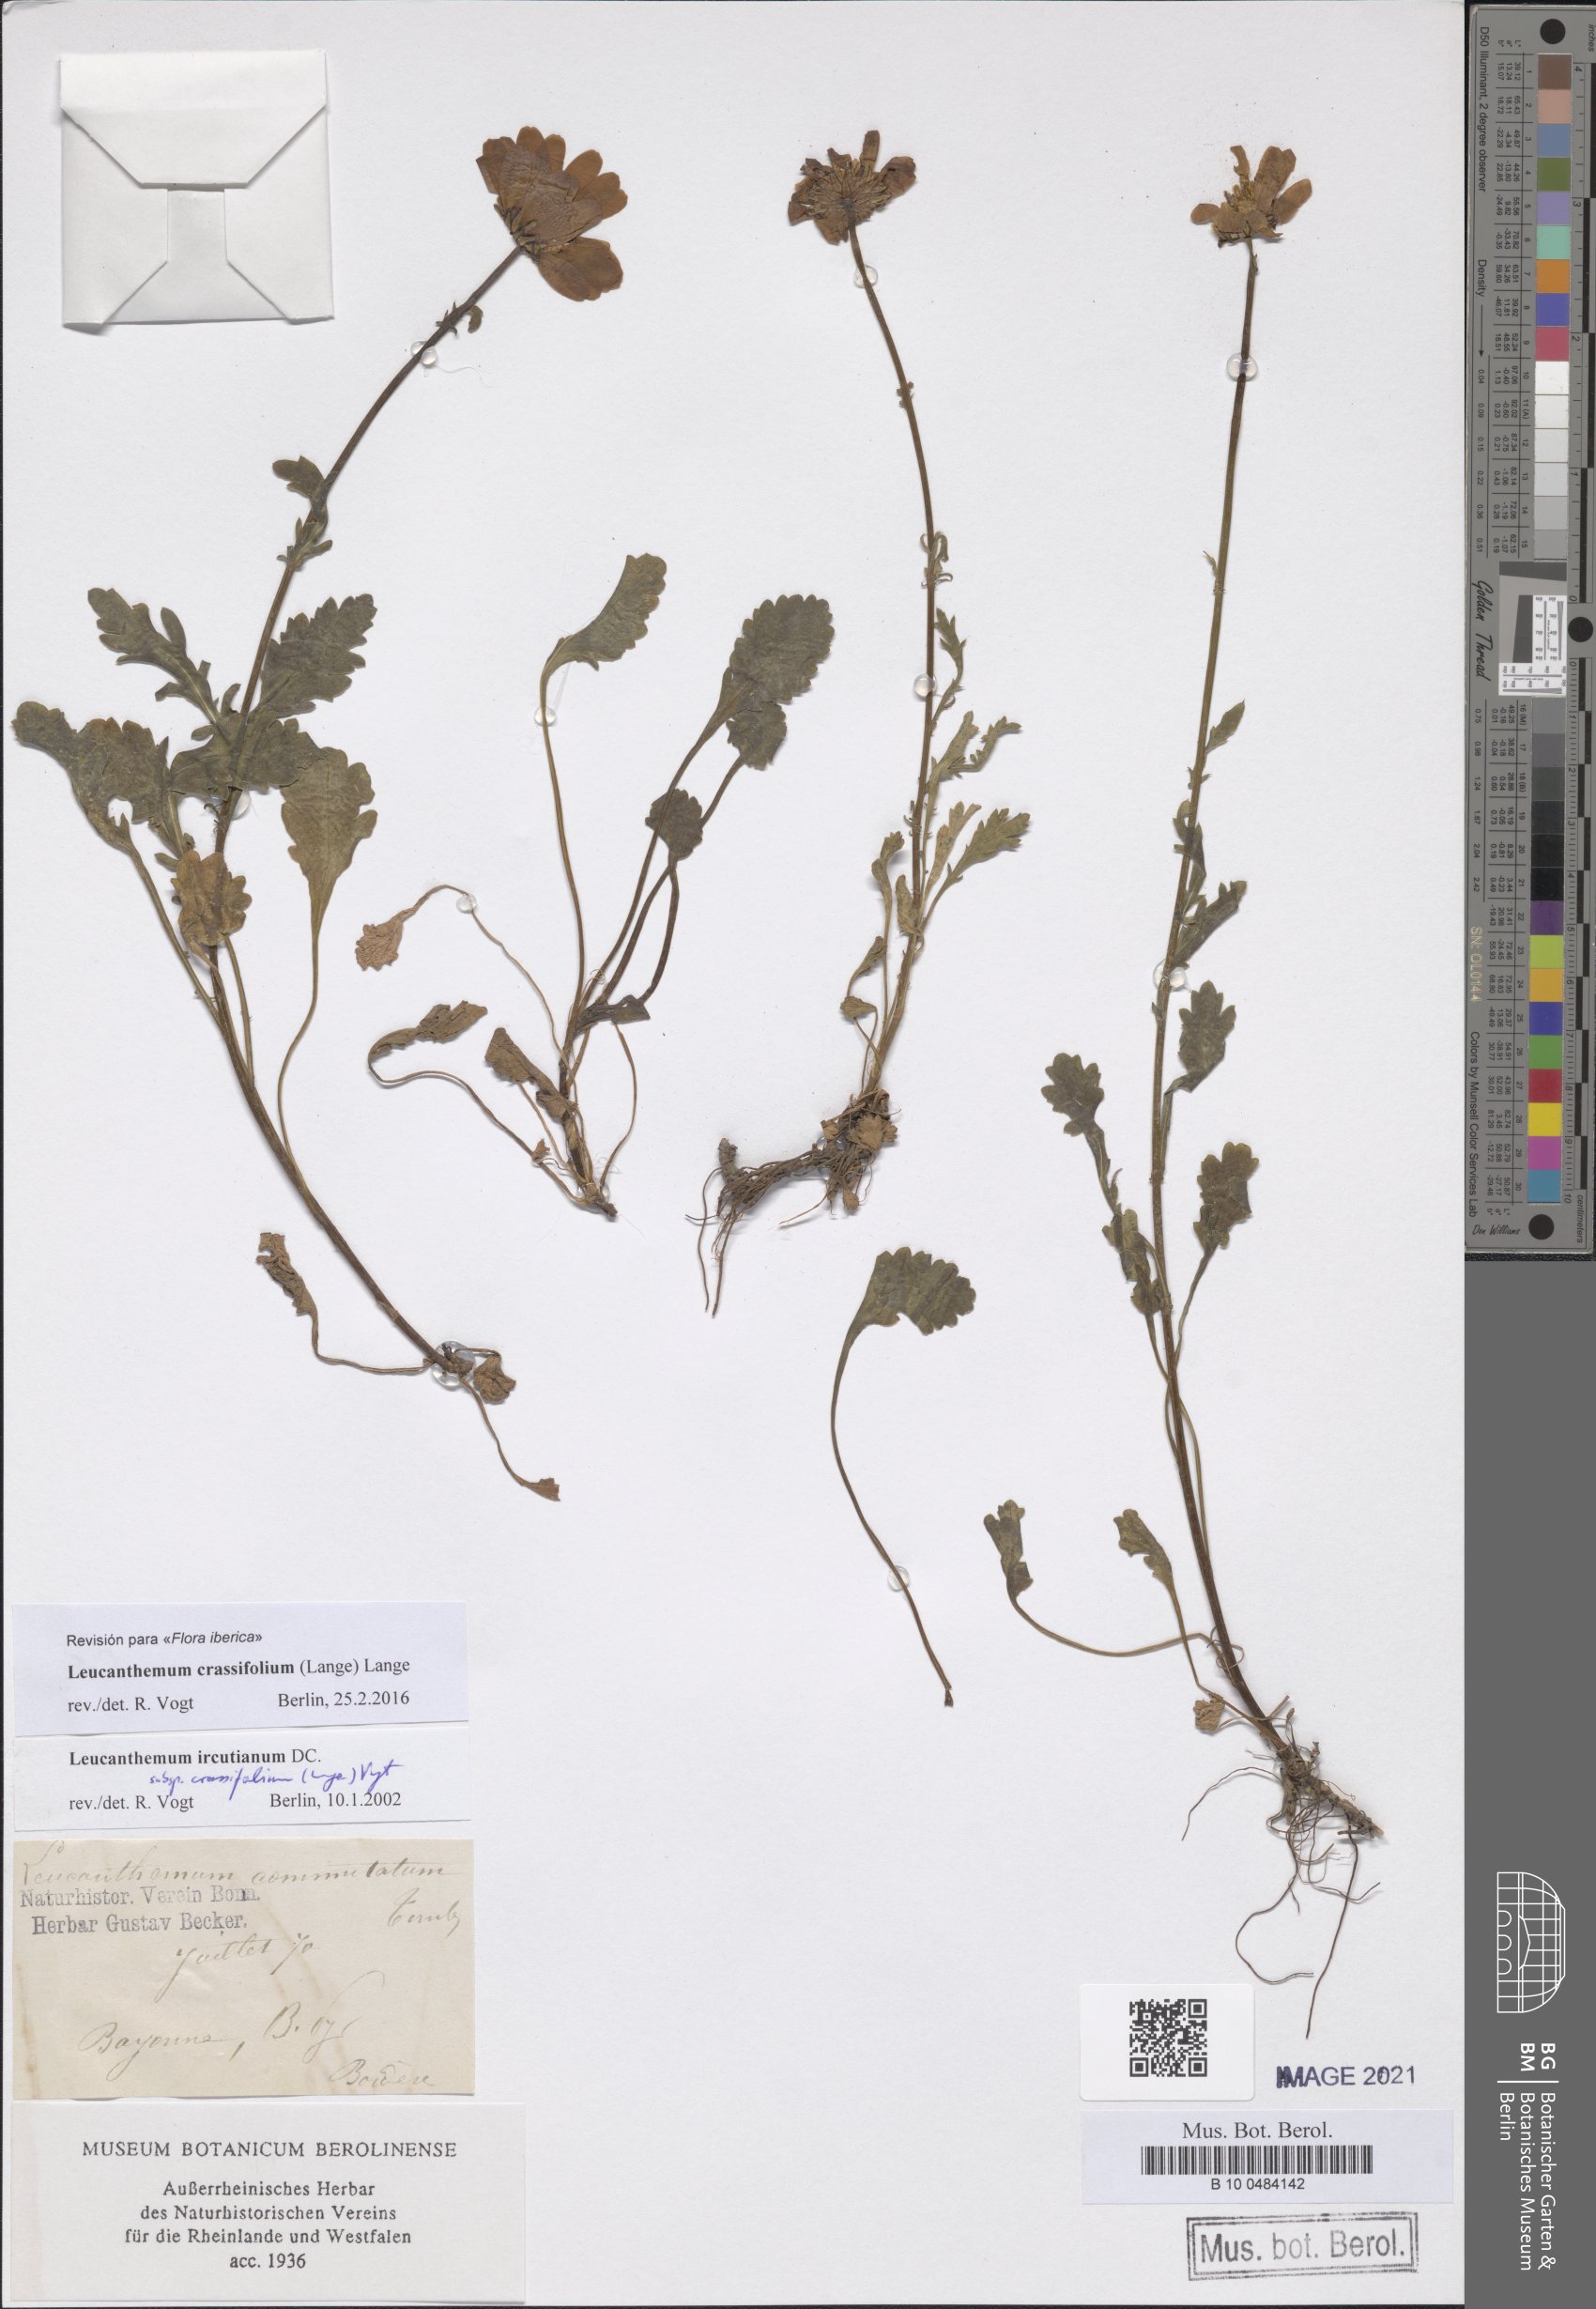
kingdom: Plantae
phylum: Tracheophyta
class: Magnoliopsida
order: Asterales
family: Asteraceae
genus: Leucanthemum
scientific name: Leucanthemum crassifolium
